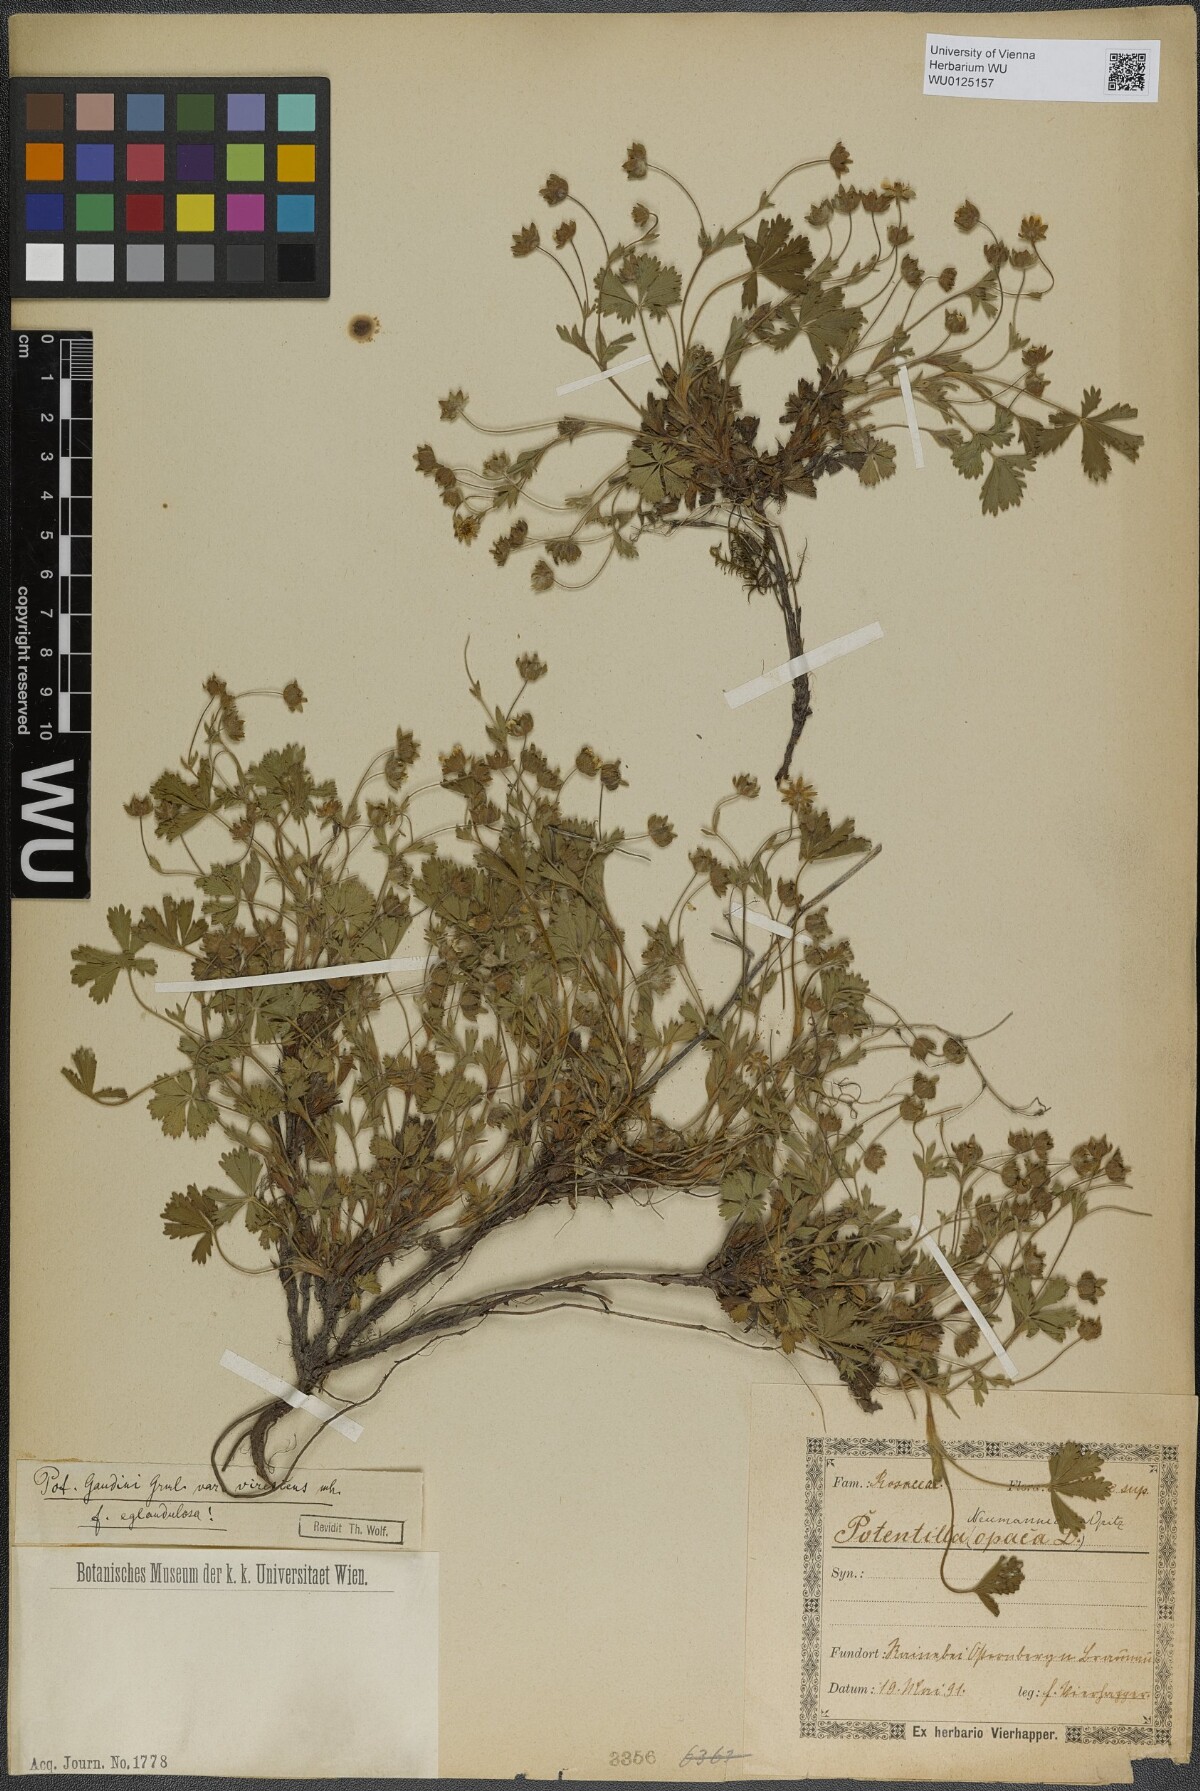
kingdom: Plantae
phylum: Tracheophyta
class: Magnoliopsida
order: Rosales
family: Rosaceae
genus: Potentilla
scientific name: Potentilla pusilla
